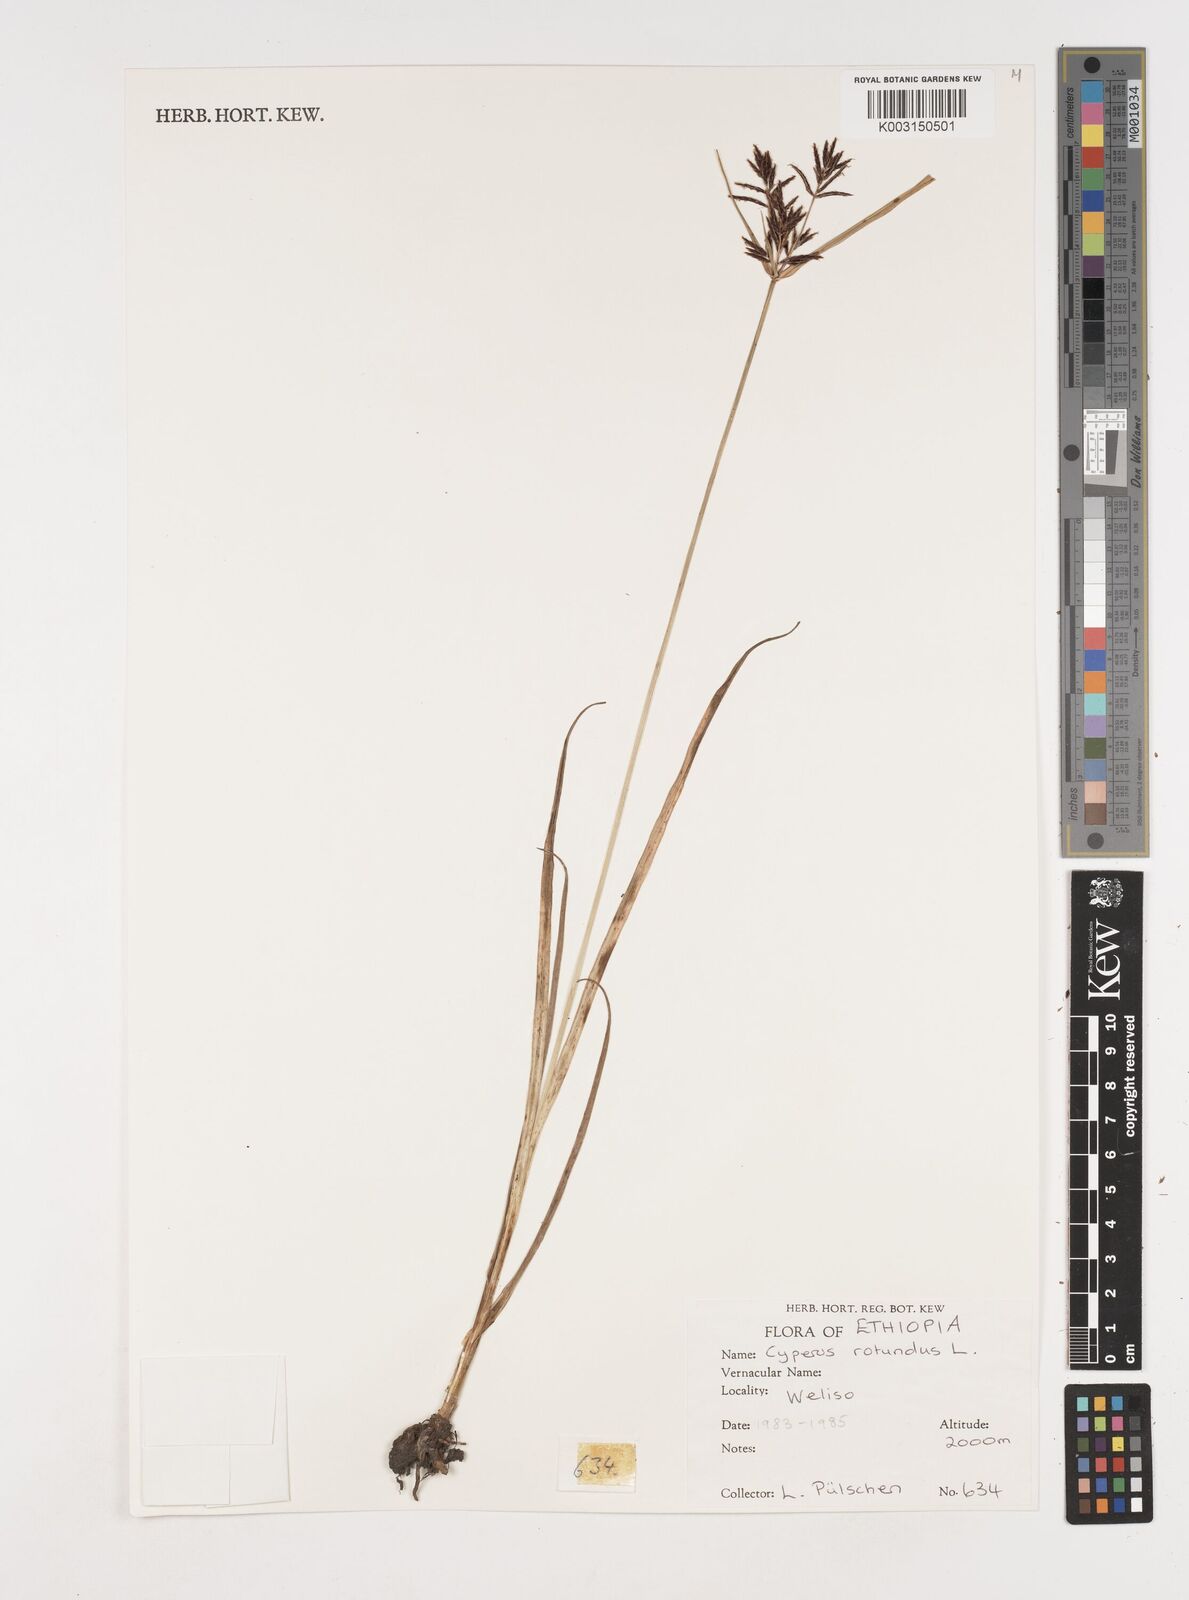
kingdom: Plantae
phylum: Tracheophyta
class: Liliopsida
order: Poales
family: Cyperaceae
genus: Cyperus
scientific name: Cyperus rotundus
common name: Nutgrass
